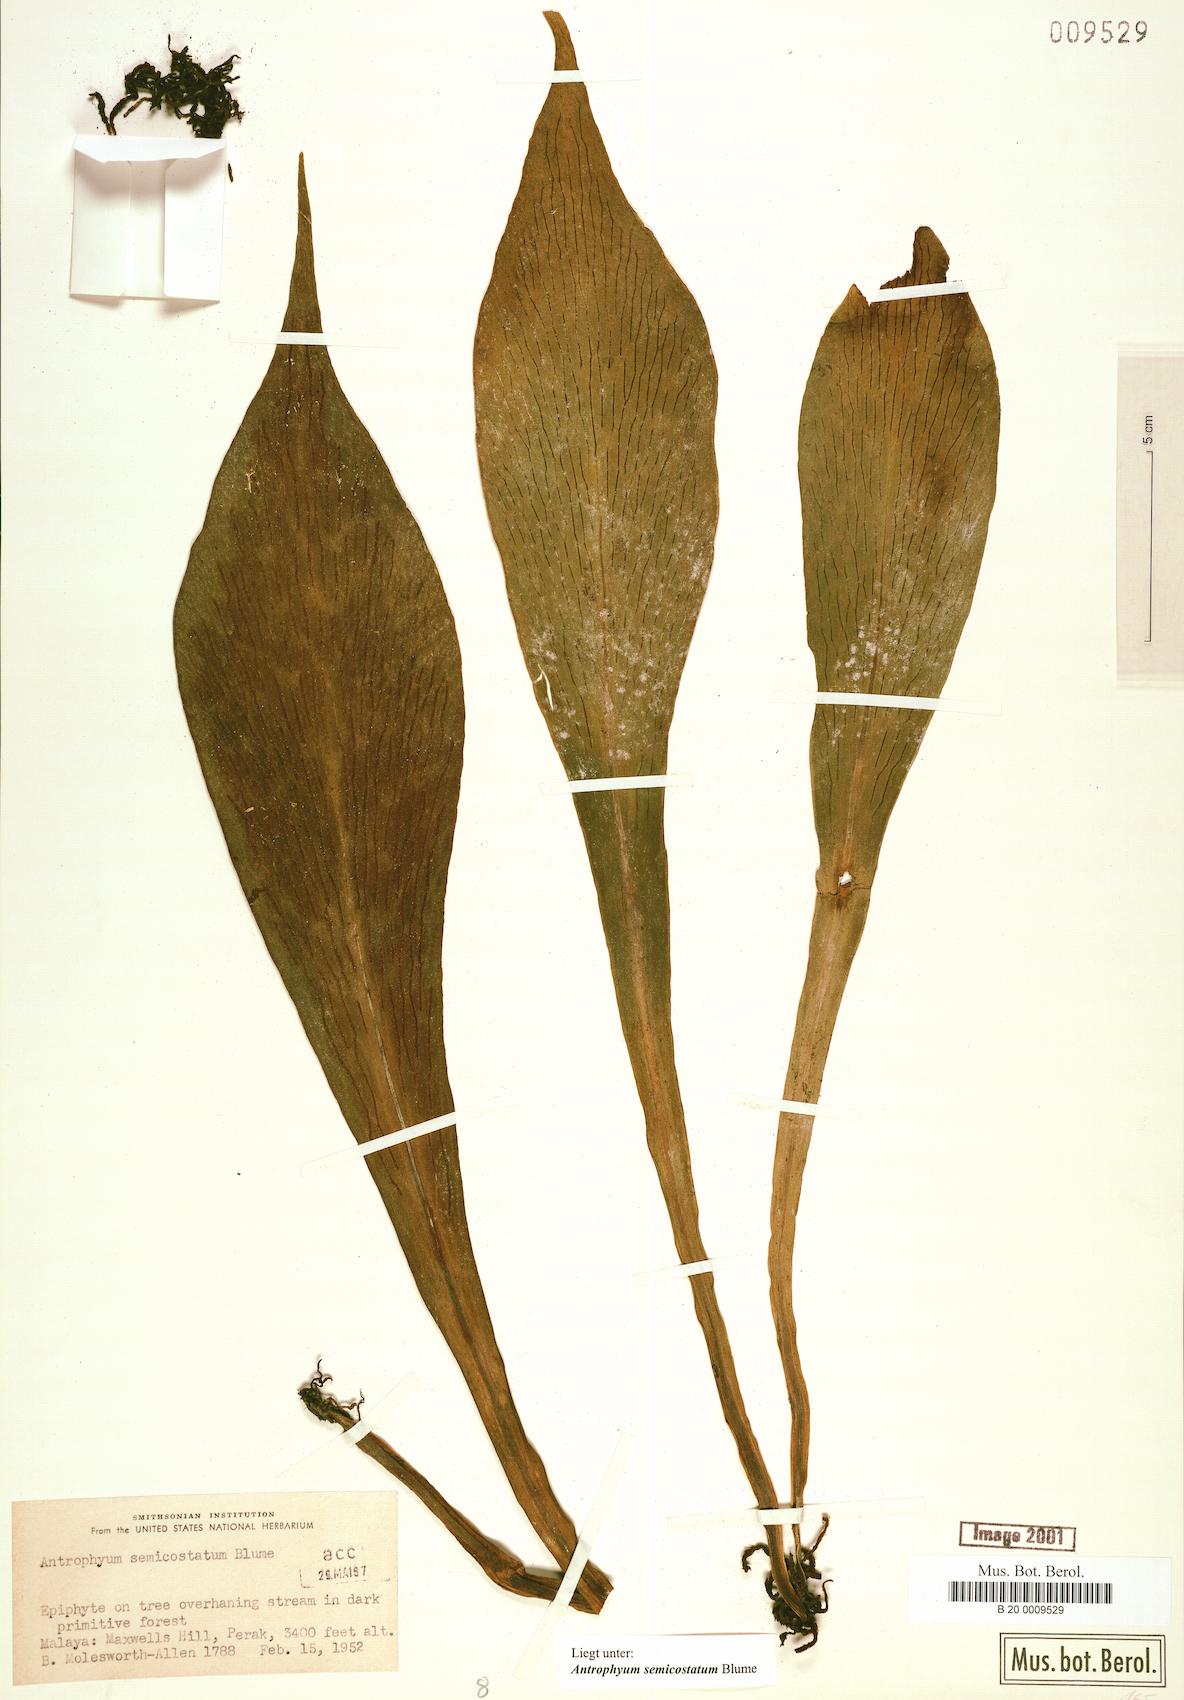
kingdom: Plantae
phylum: Tracheophyta
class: Polypodiopsida
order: Polypodiales
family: Pteridaceae
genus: Antrophyum
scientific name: Antrophyum semicostatum
